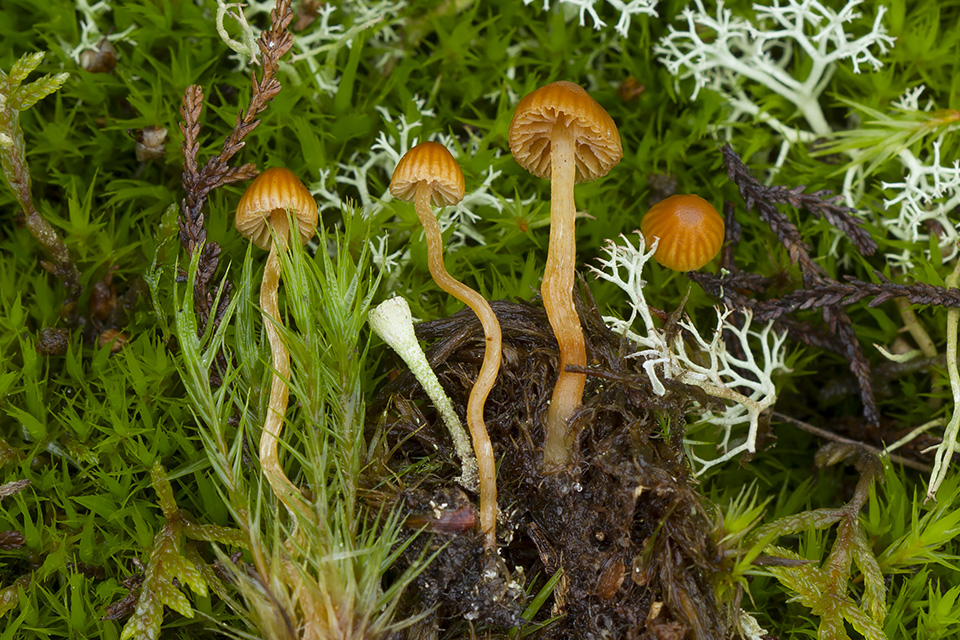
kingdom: Fungi
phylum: Basidiomycota
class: Agaricomycetes
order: Agaricales
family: Hymenogastraceae
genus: Galerina
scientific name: Galerina calyptrata
